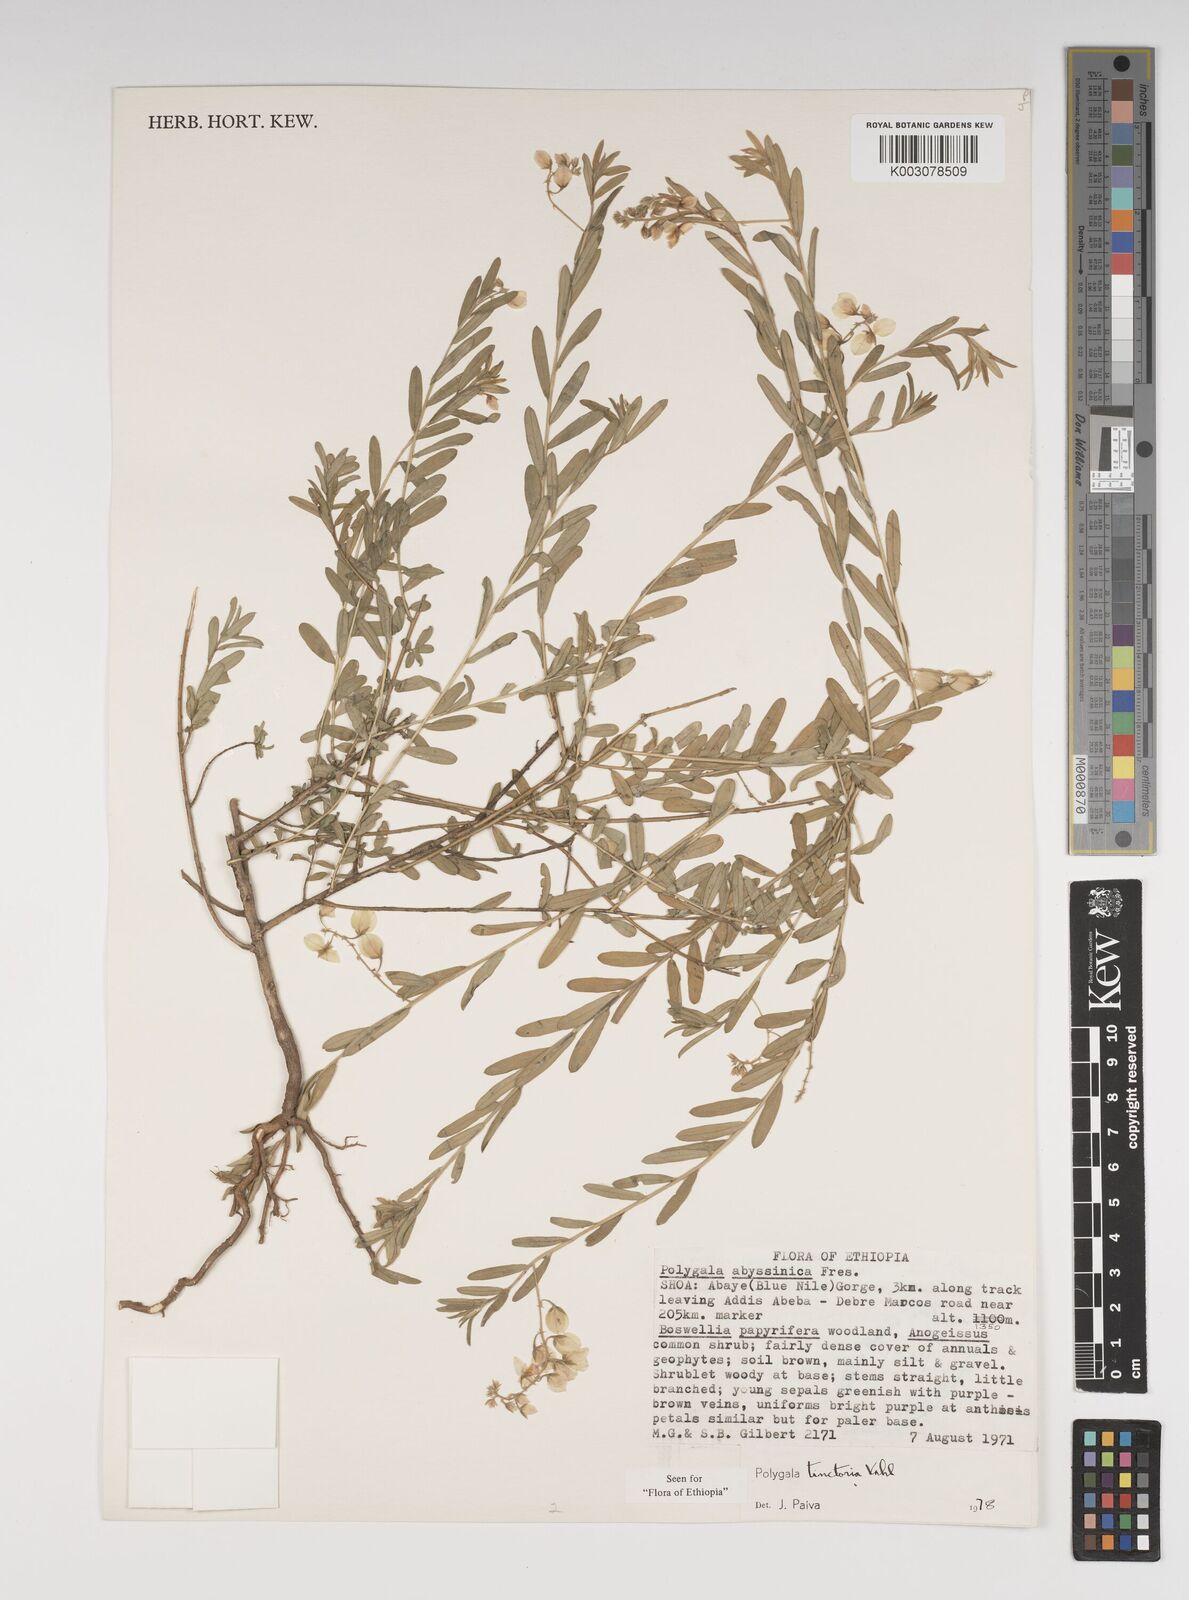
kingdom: Plantae
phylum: Tracheophyta
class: Magnoliopsida
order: Fabales
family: Polygalaceae
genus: Polygala
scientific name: Polygala tinctoria
